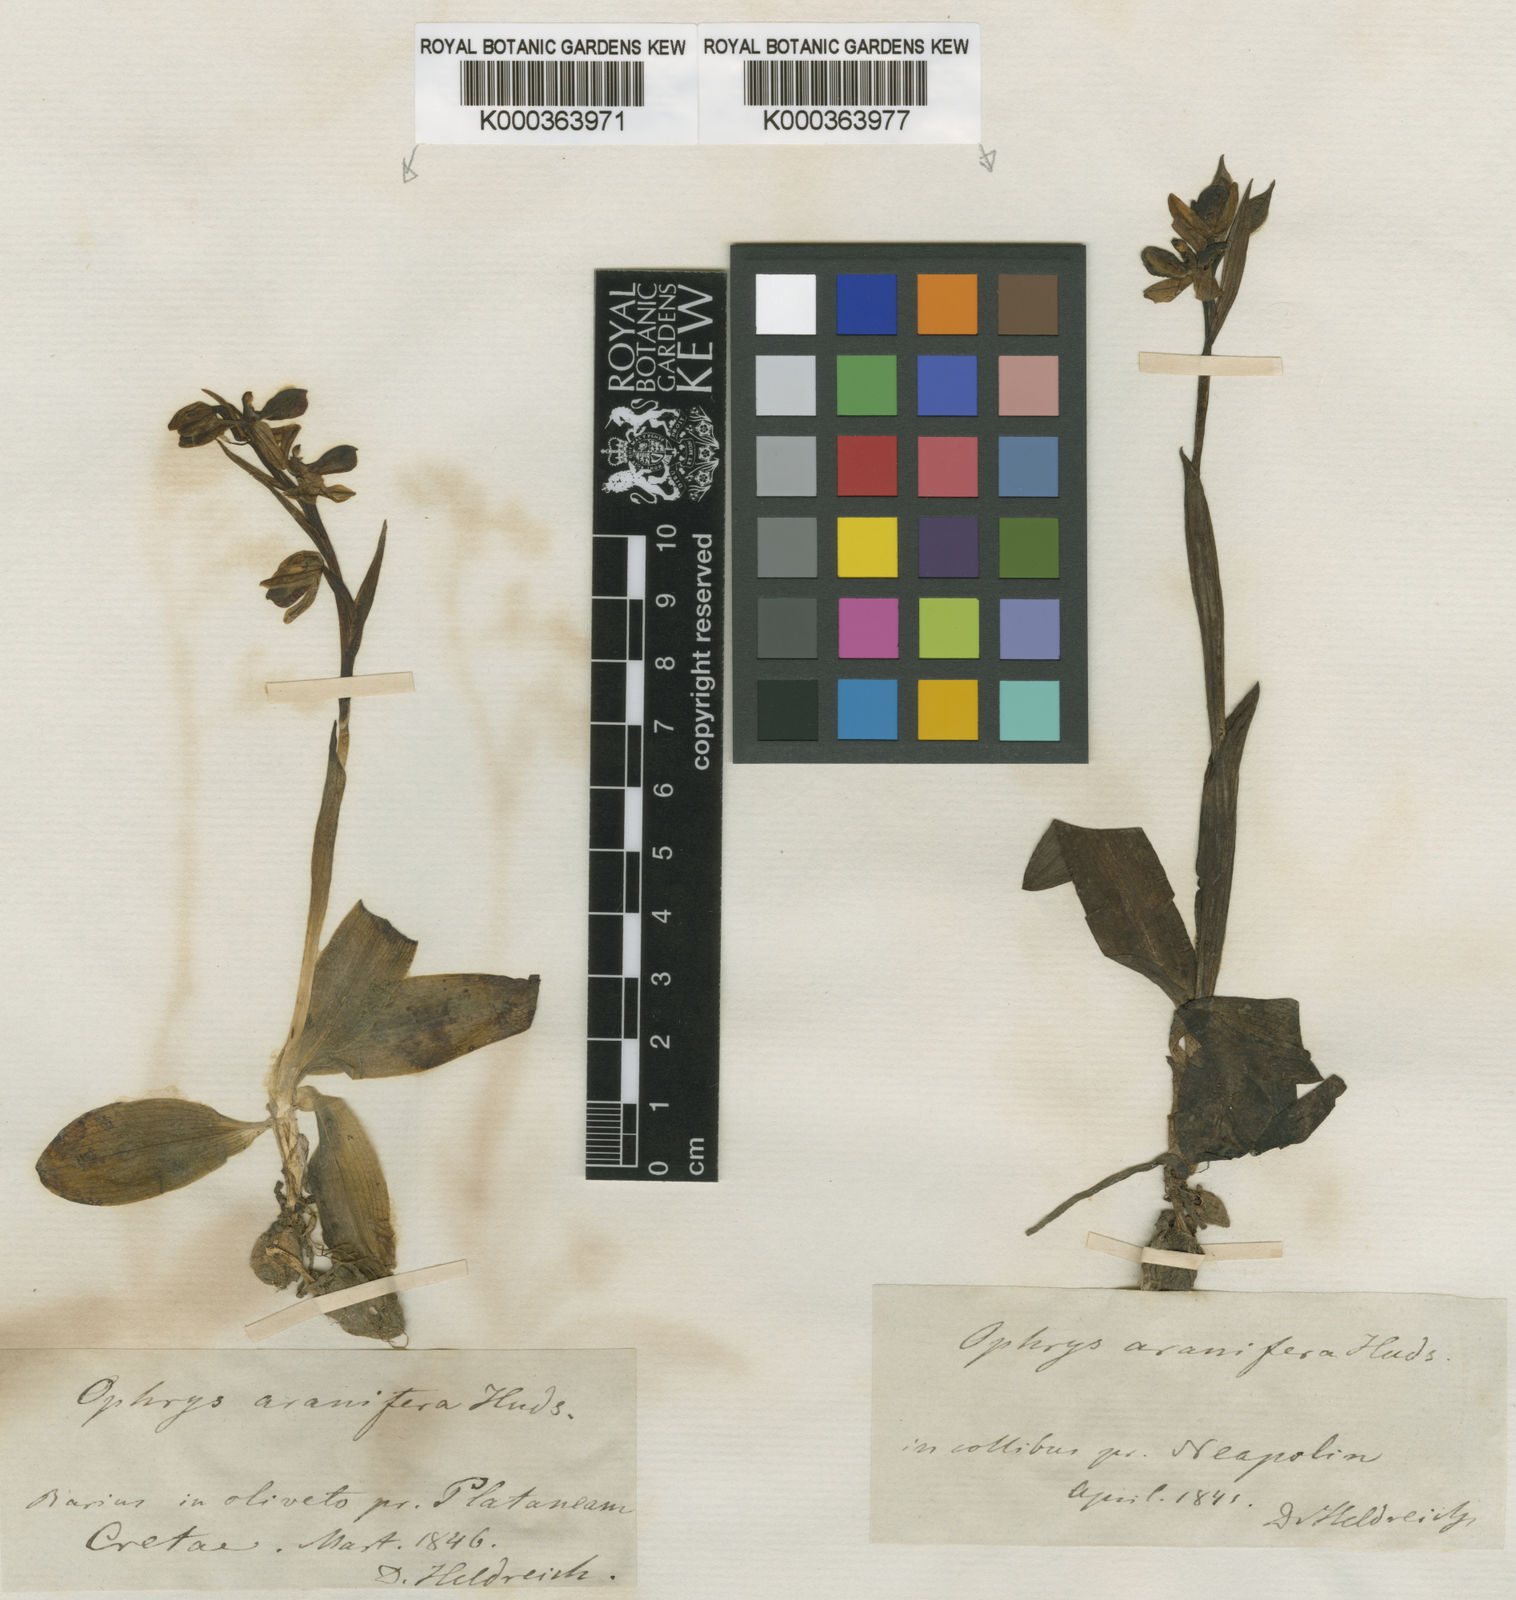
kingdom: Plantae
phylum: Tracheophyta
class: Liliopsida
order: Asparagales
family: Orchidaceae
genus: Ophrys
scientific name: Ophrys sphegodes
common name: Early spider-orchid
